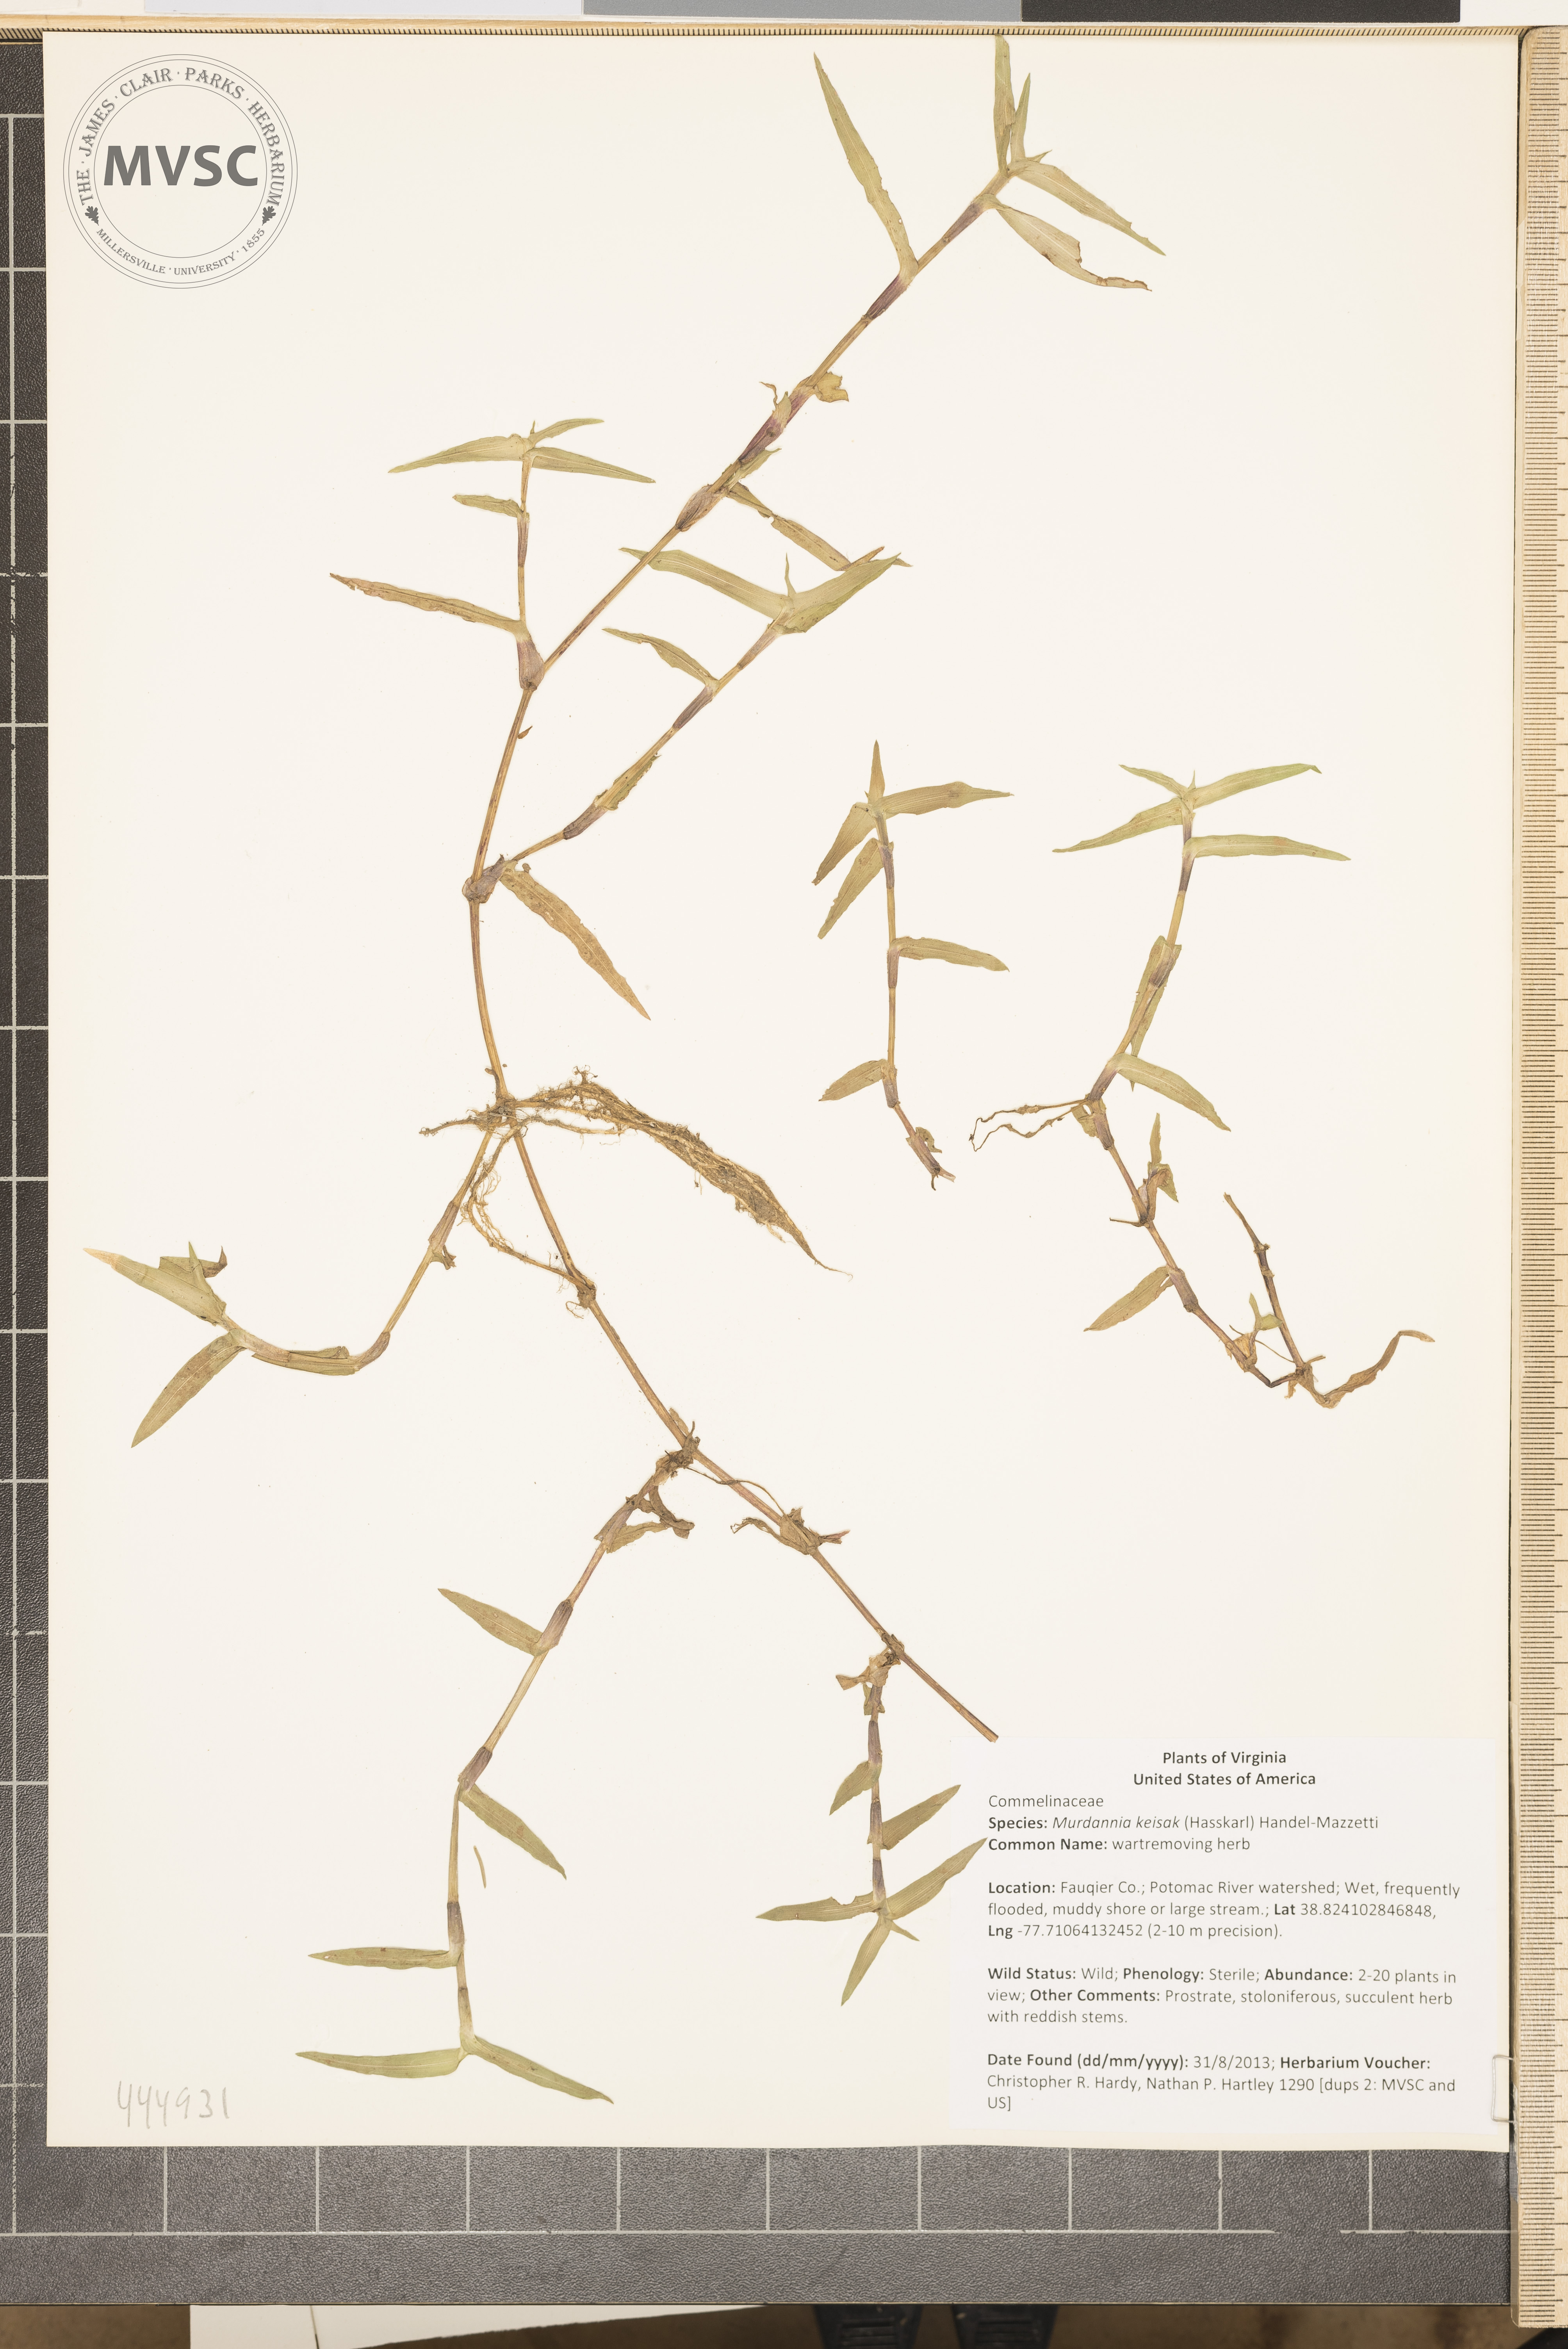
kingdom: Plantae
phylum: Tracheophyta
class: Liliopsida
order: Commelinales
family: Commelinaceae
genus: Murdannia
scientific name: Murdannia keisak
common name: wartremoving herb
